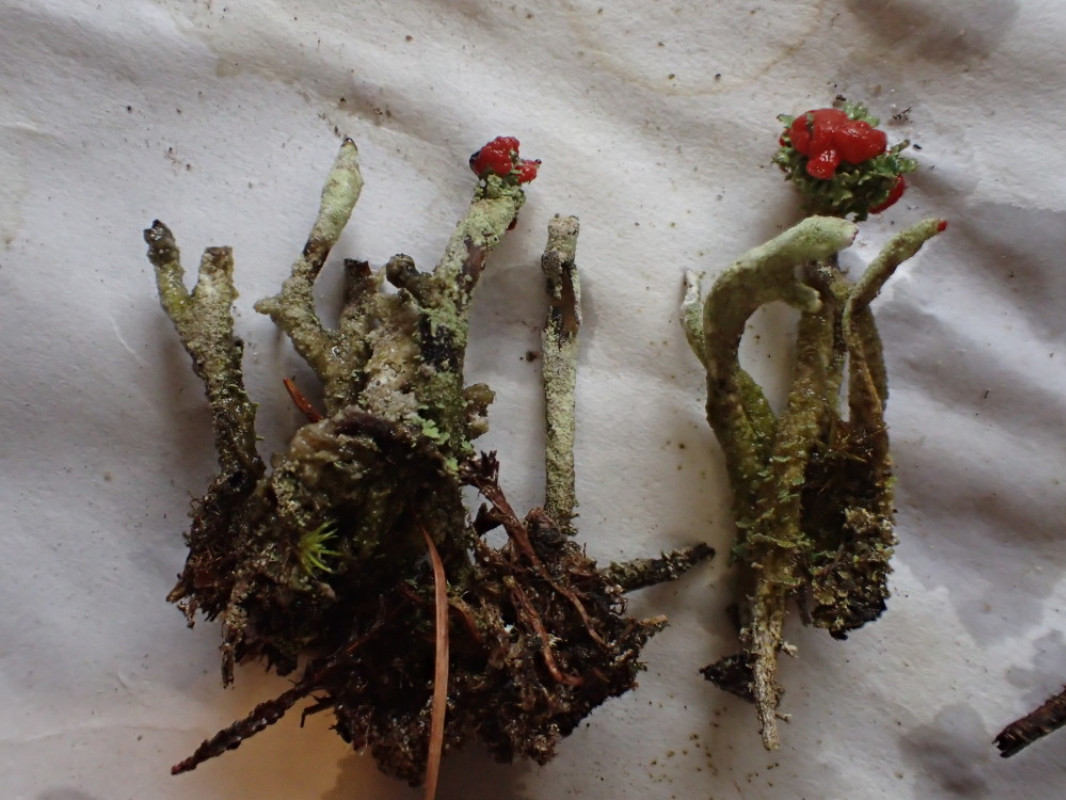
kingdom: Fungi
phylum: Ascomycota
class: Lecanoromycetes
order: Lecanorales
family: Cladoniaceae
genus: Cladonia
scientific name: Cladonia floerkeana
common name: lakrød bægerlav
